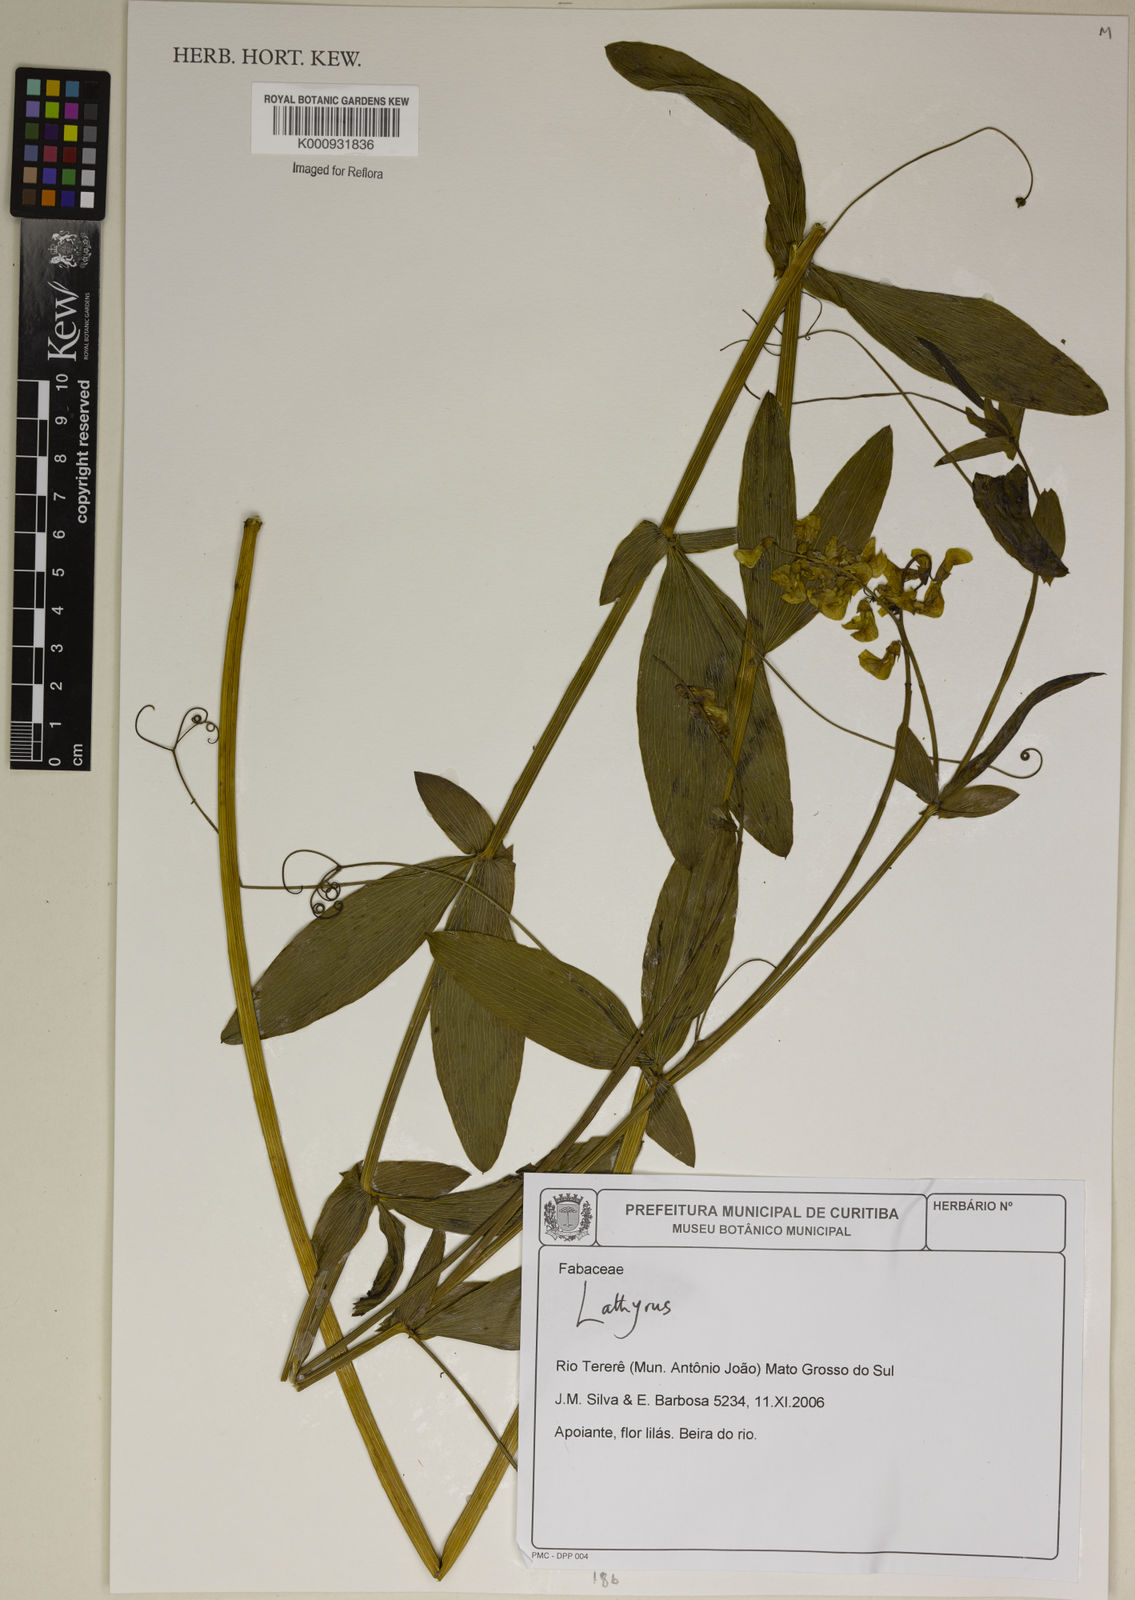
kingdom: Plantae
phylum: Tracheophyta
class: Magnoliopsida
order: Fabales
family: Fabaceae
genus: Lathyrus
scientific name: Lathyrus
